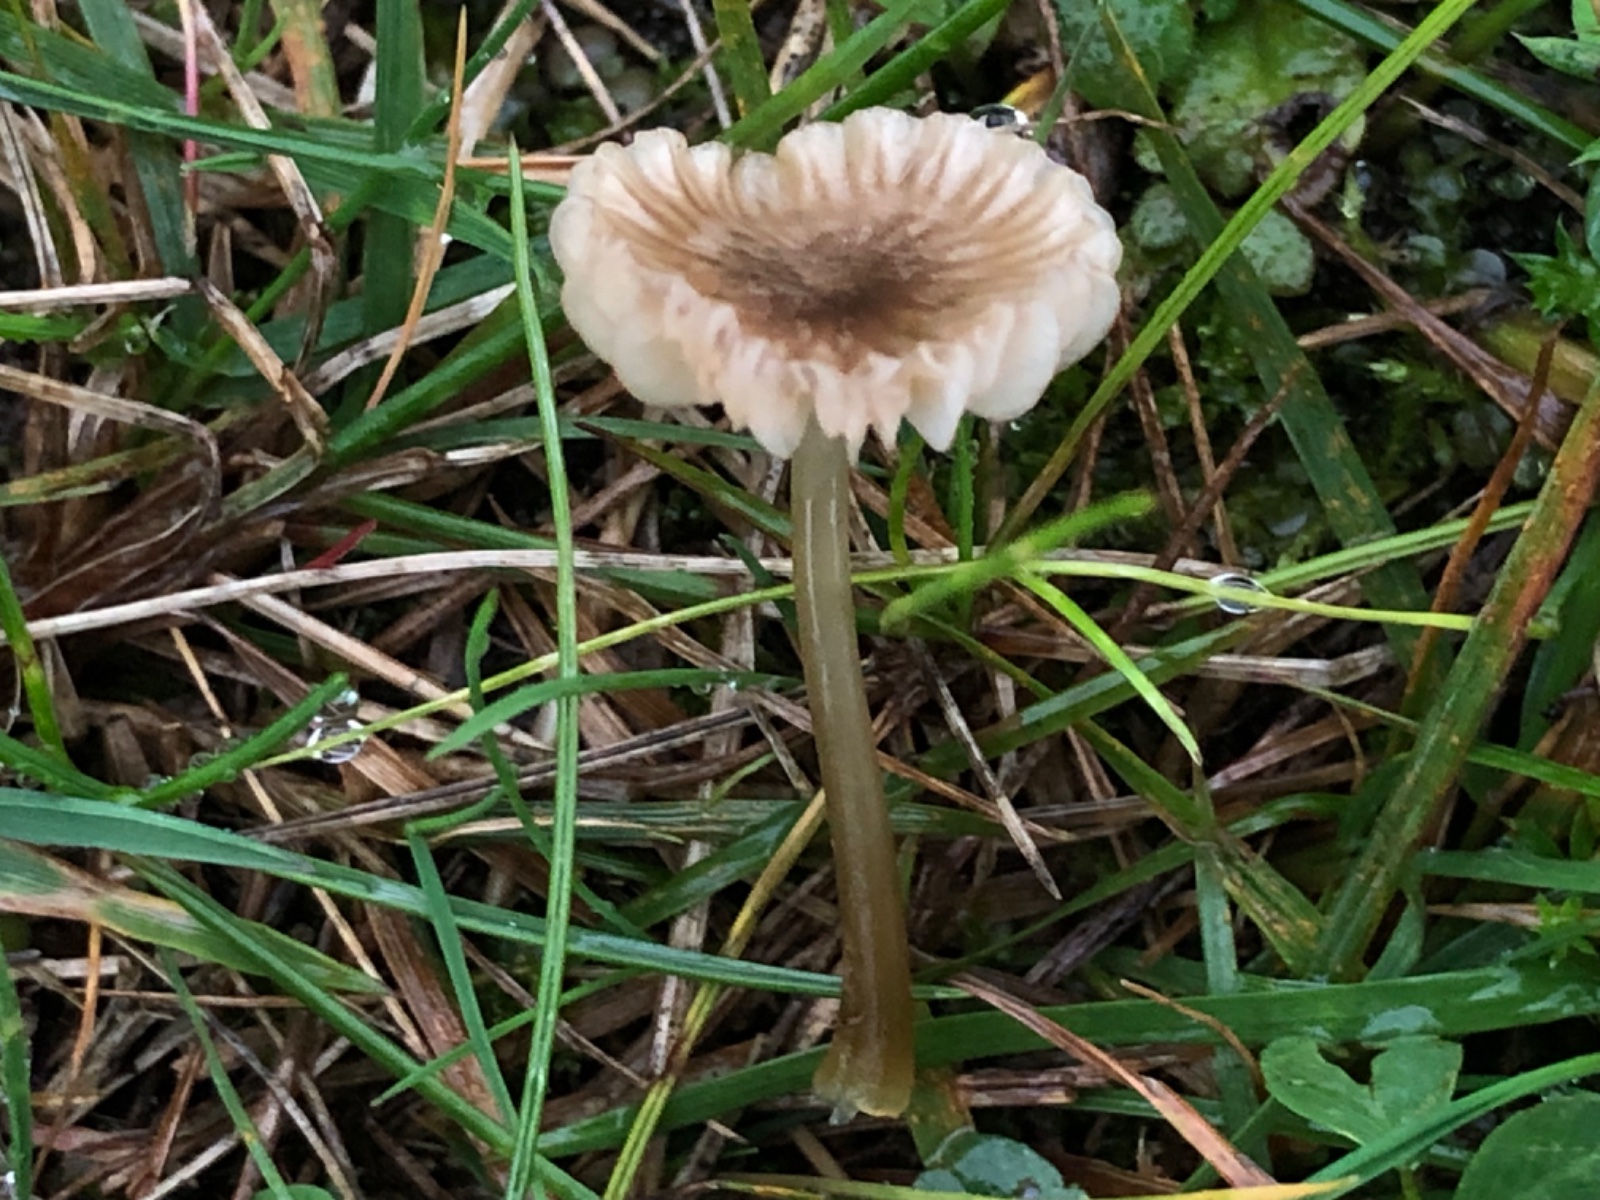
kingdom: Fungi
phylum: Basidiomycota
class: Agaricomycetes
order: Agaricales
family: Mycenaceae
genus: Mycena
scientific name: Mycena
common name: huesvamp
